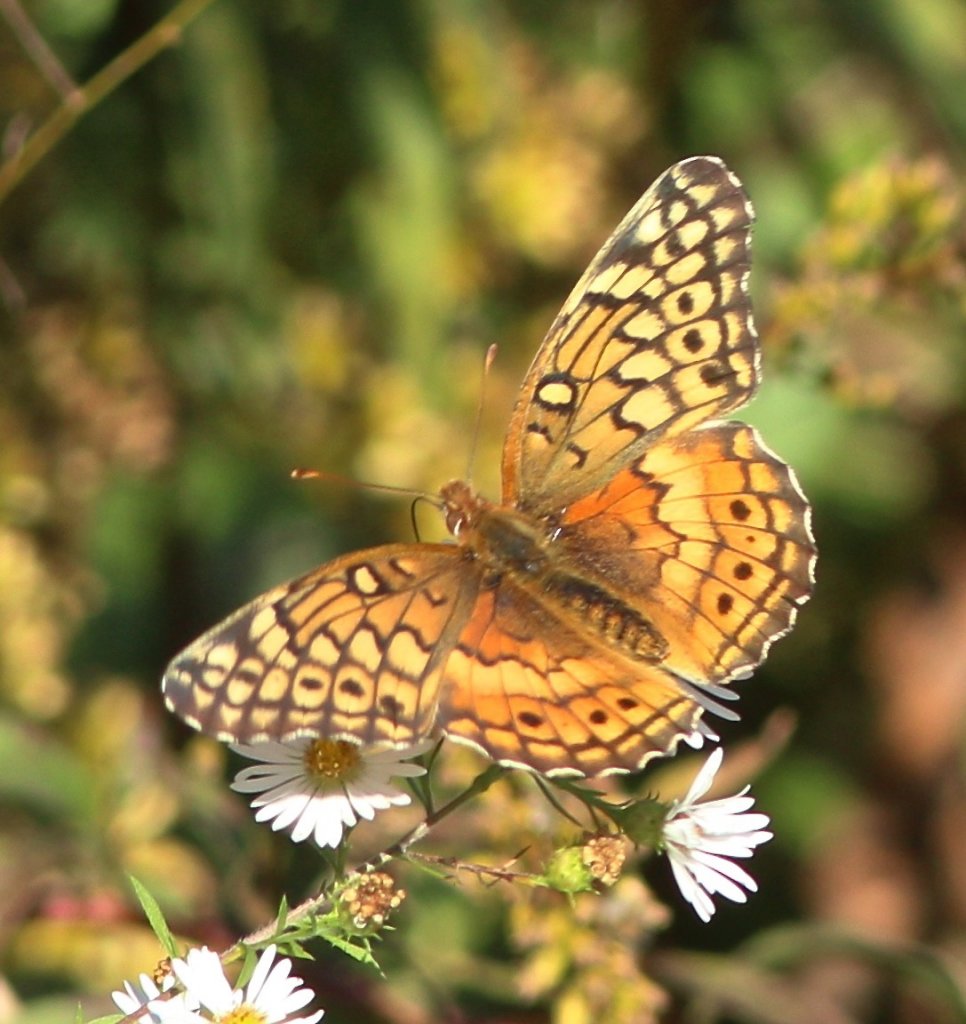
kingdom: Animalia
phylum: Arthropoda
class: Insecta
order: Lepidoptera
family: Nymphalidae
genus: Euptoieta
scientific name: Euptoieta claudia
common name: Variegated Fritillary
